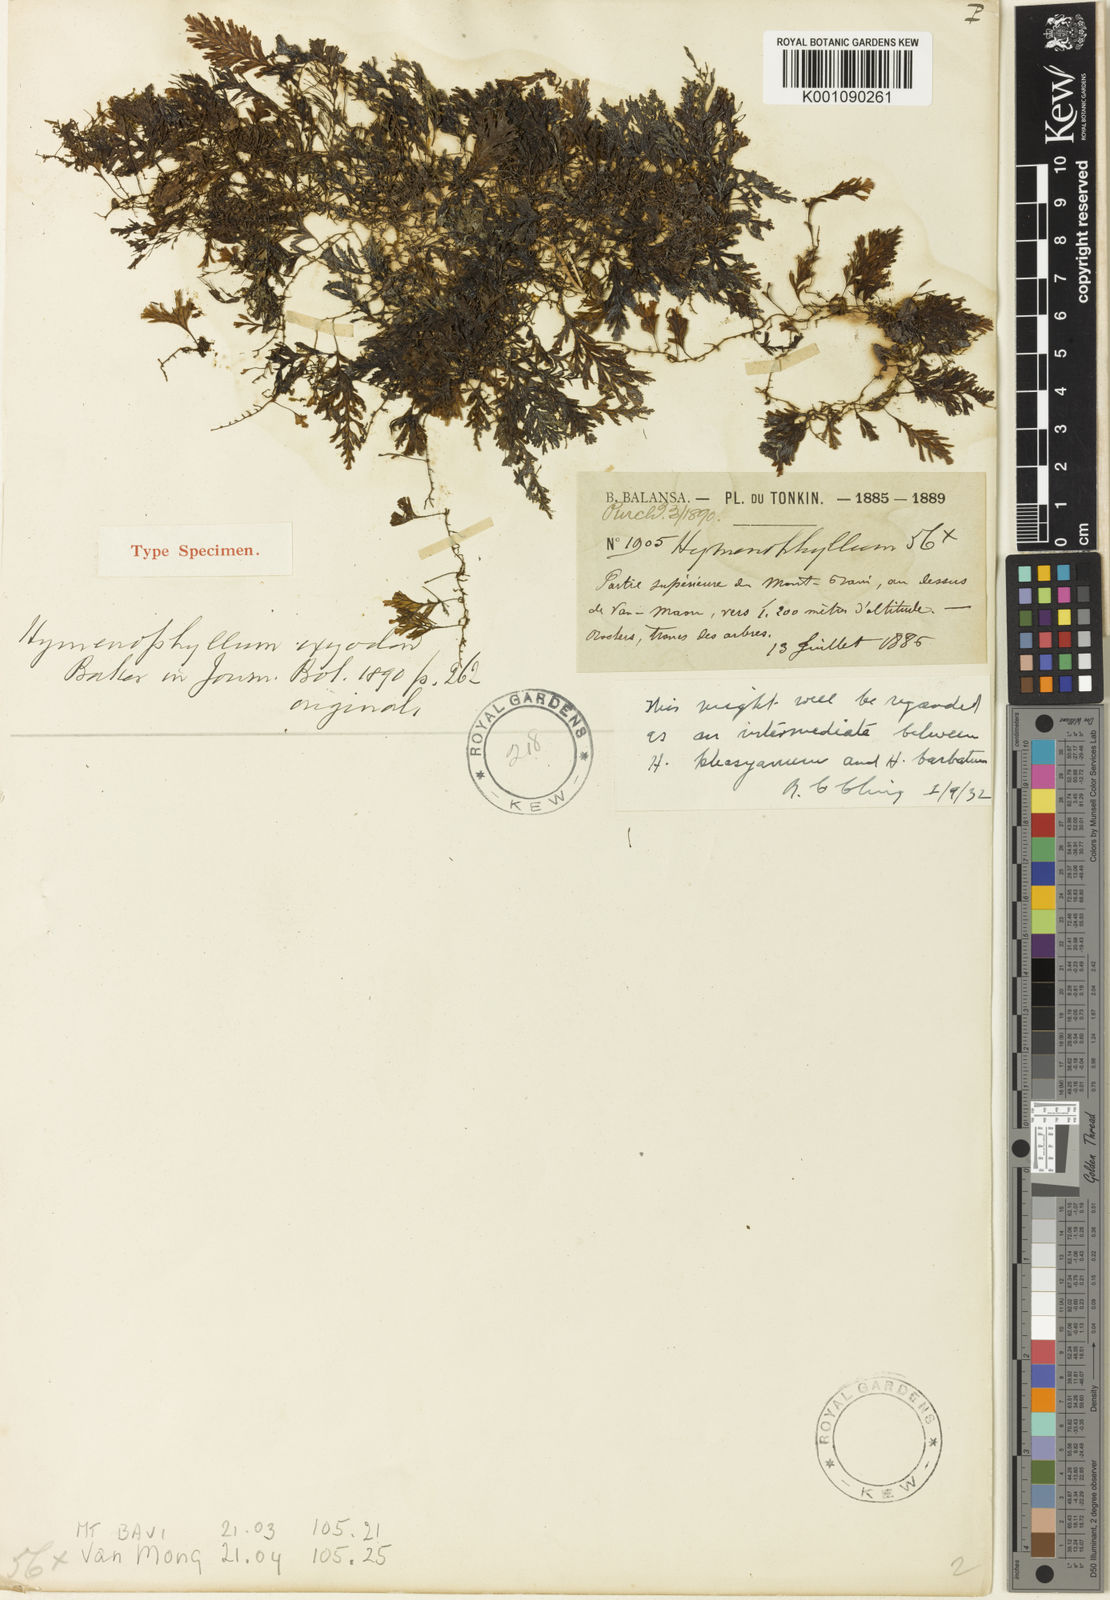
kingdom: Plantae
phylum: Tracheophyta
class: Polypodiopsida
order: Hymenophyllales
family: Hymenophyllaceae
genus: Hymenophyllum
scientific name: Hymenophyllum barbatum
